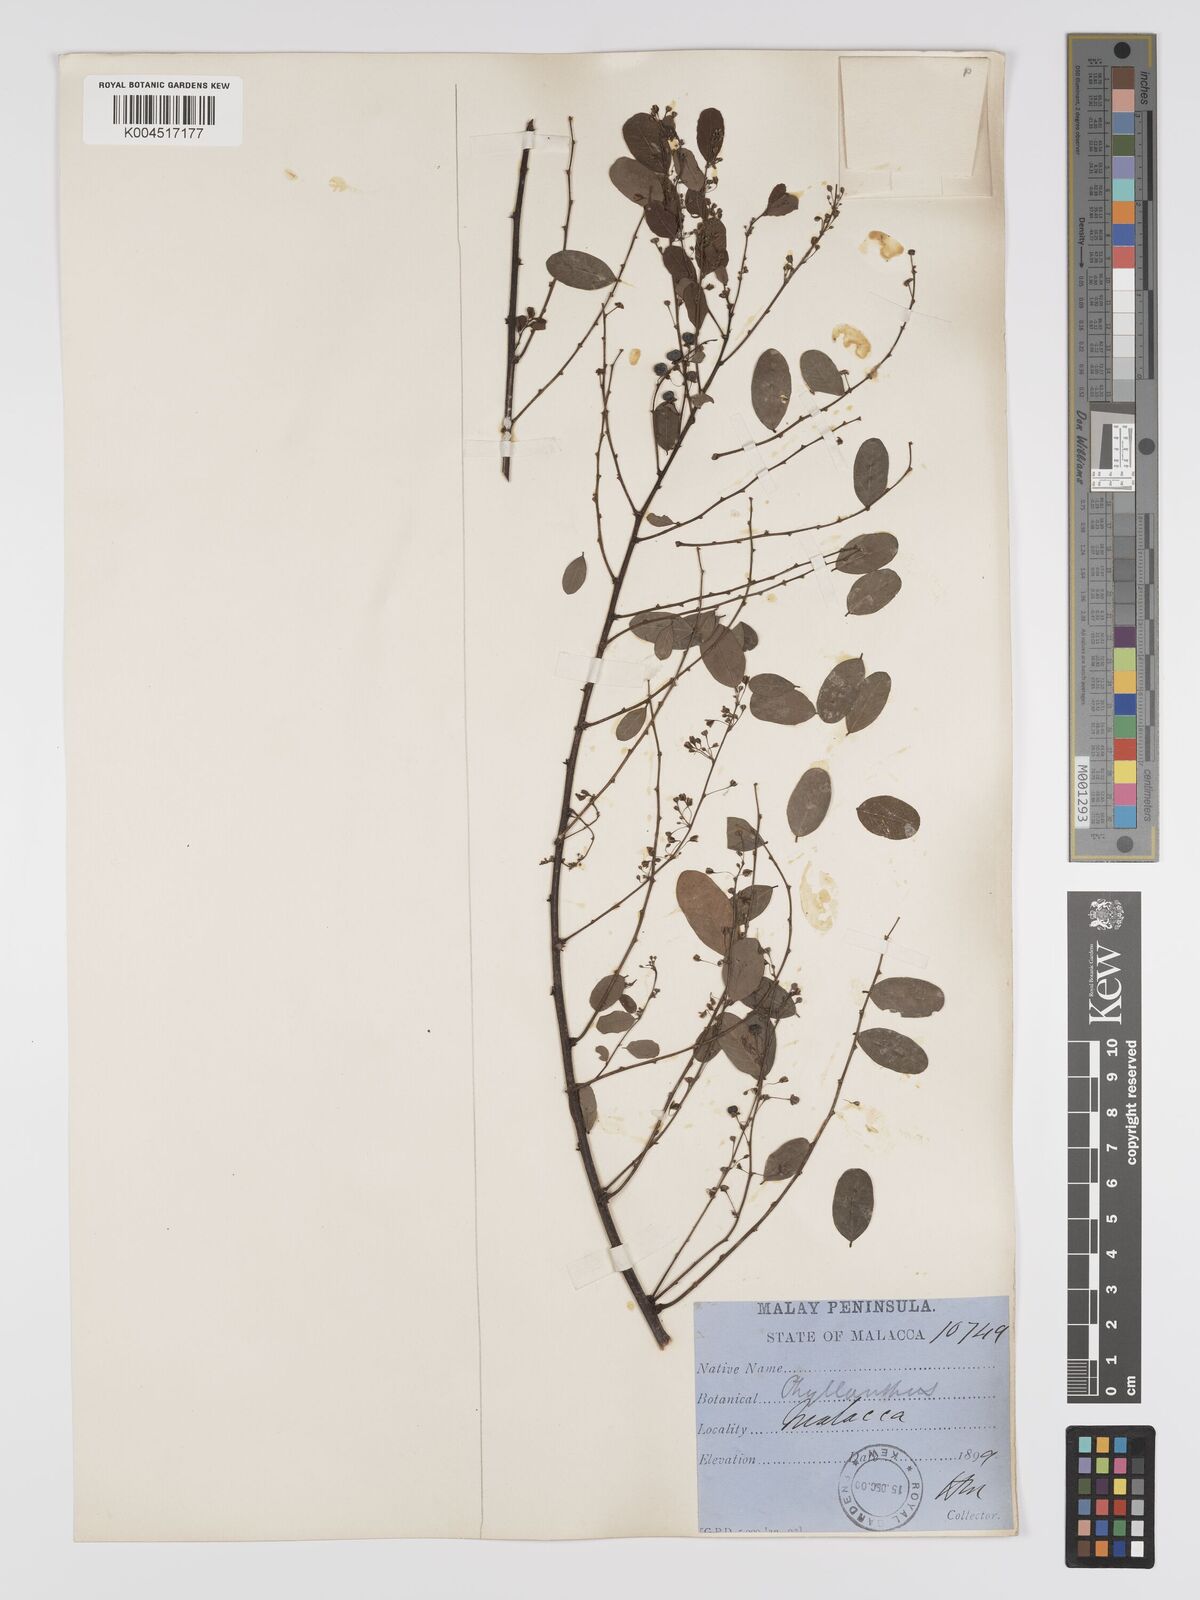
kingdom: Plantae
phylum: Tracheophyta
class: Magnoliopsida
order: Malpighiales
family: Phyllanthaceae
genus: Phyllanthus
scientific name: Phyllanthus microcarpus
